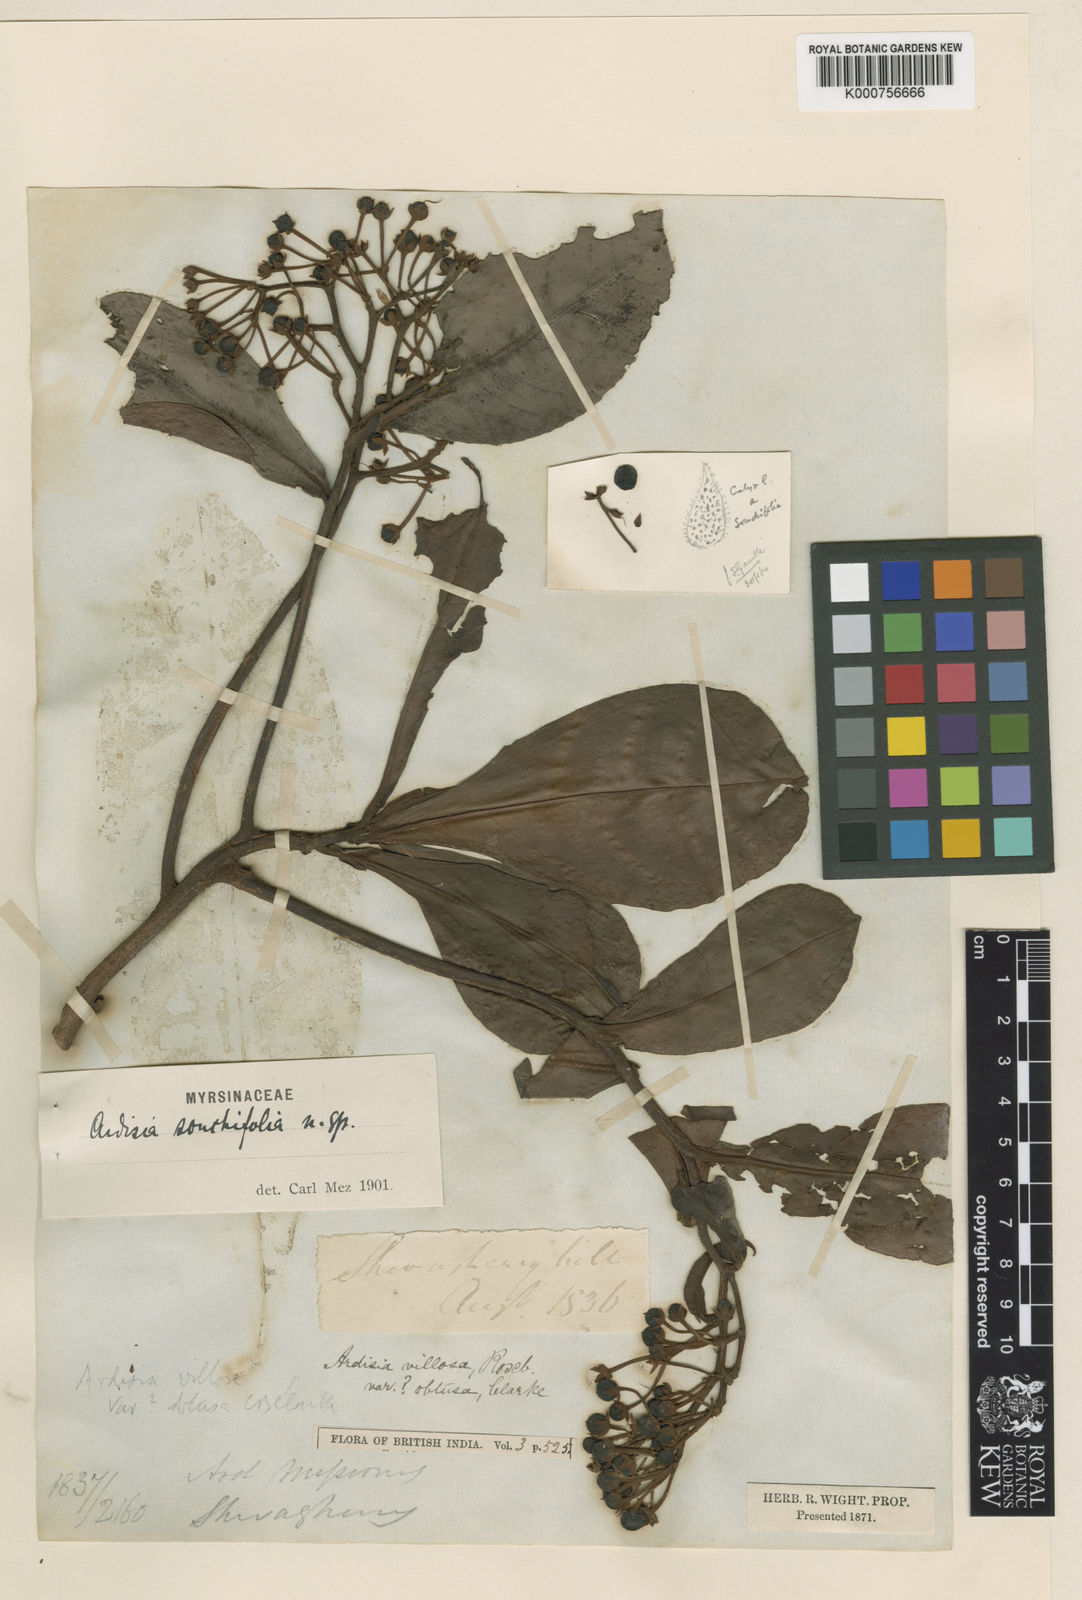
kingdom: Plantae
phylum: Tracheophyta
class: Magnoliopsida
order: Ericales
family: Primulaceae
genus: Ardisia
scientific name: Ardisia sonchifolia
